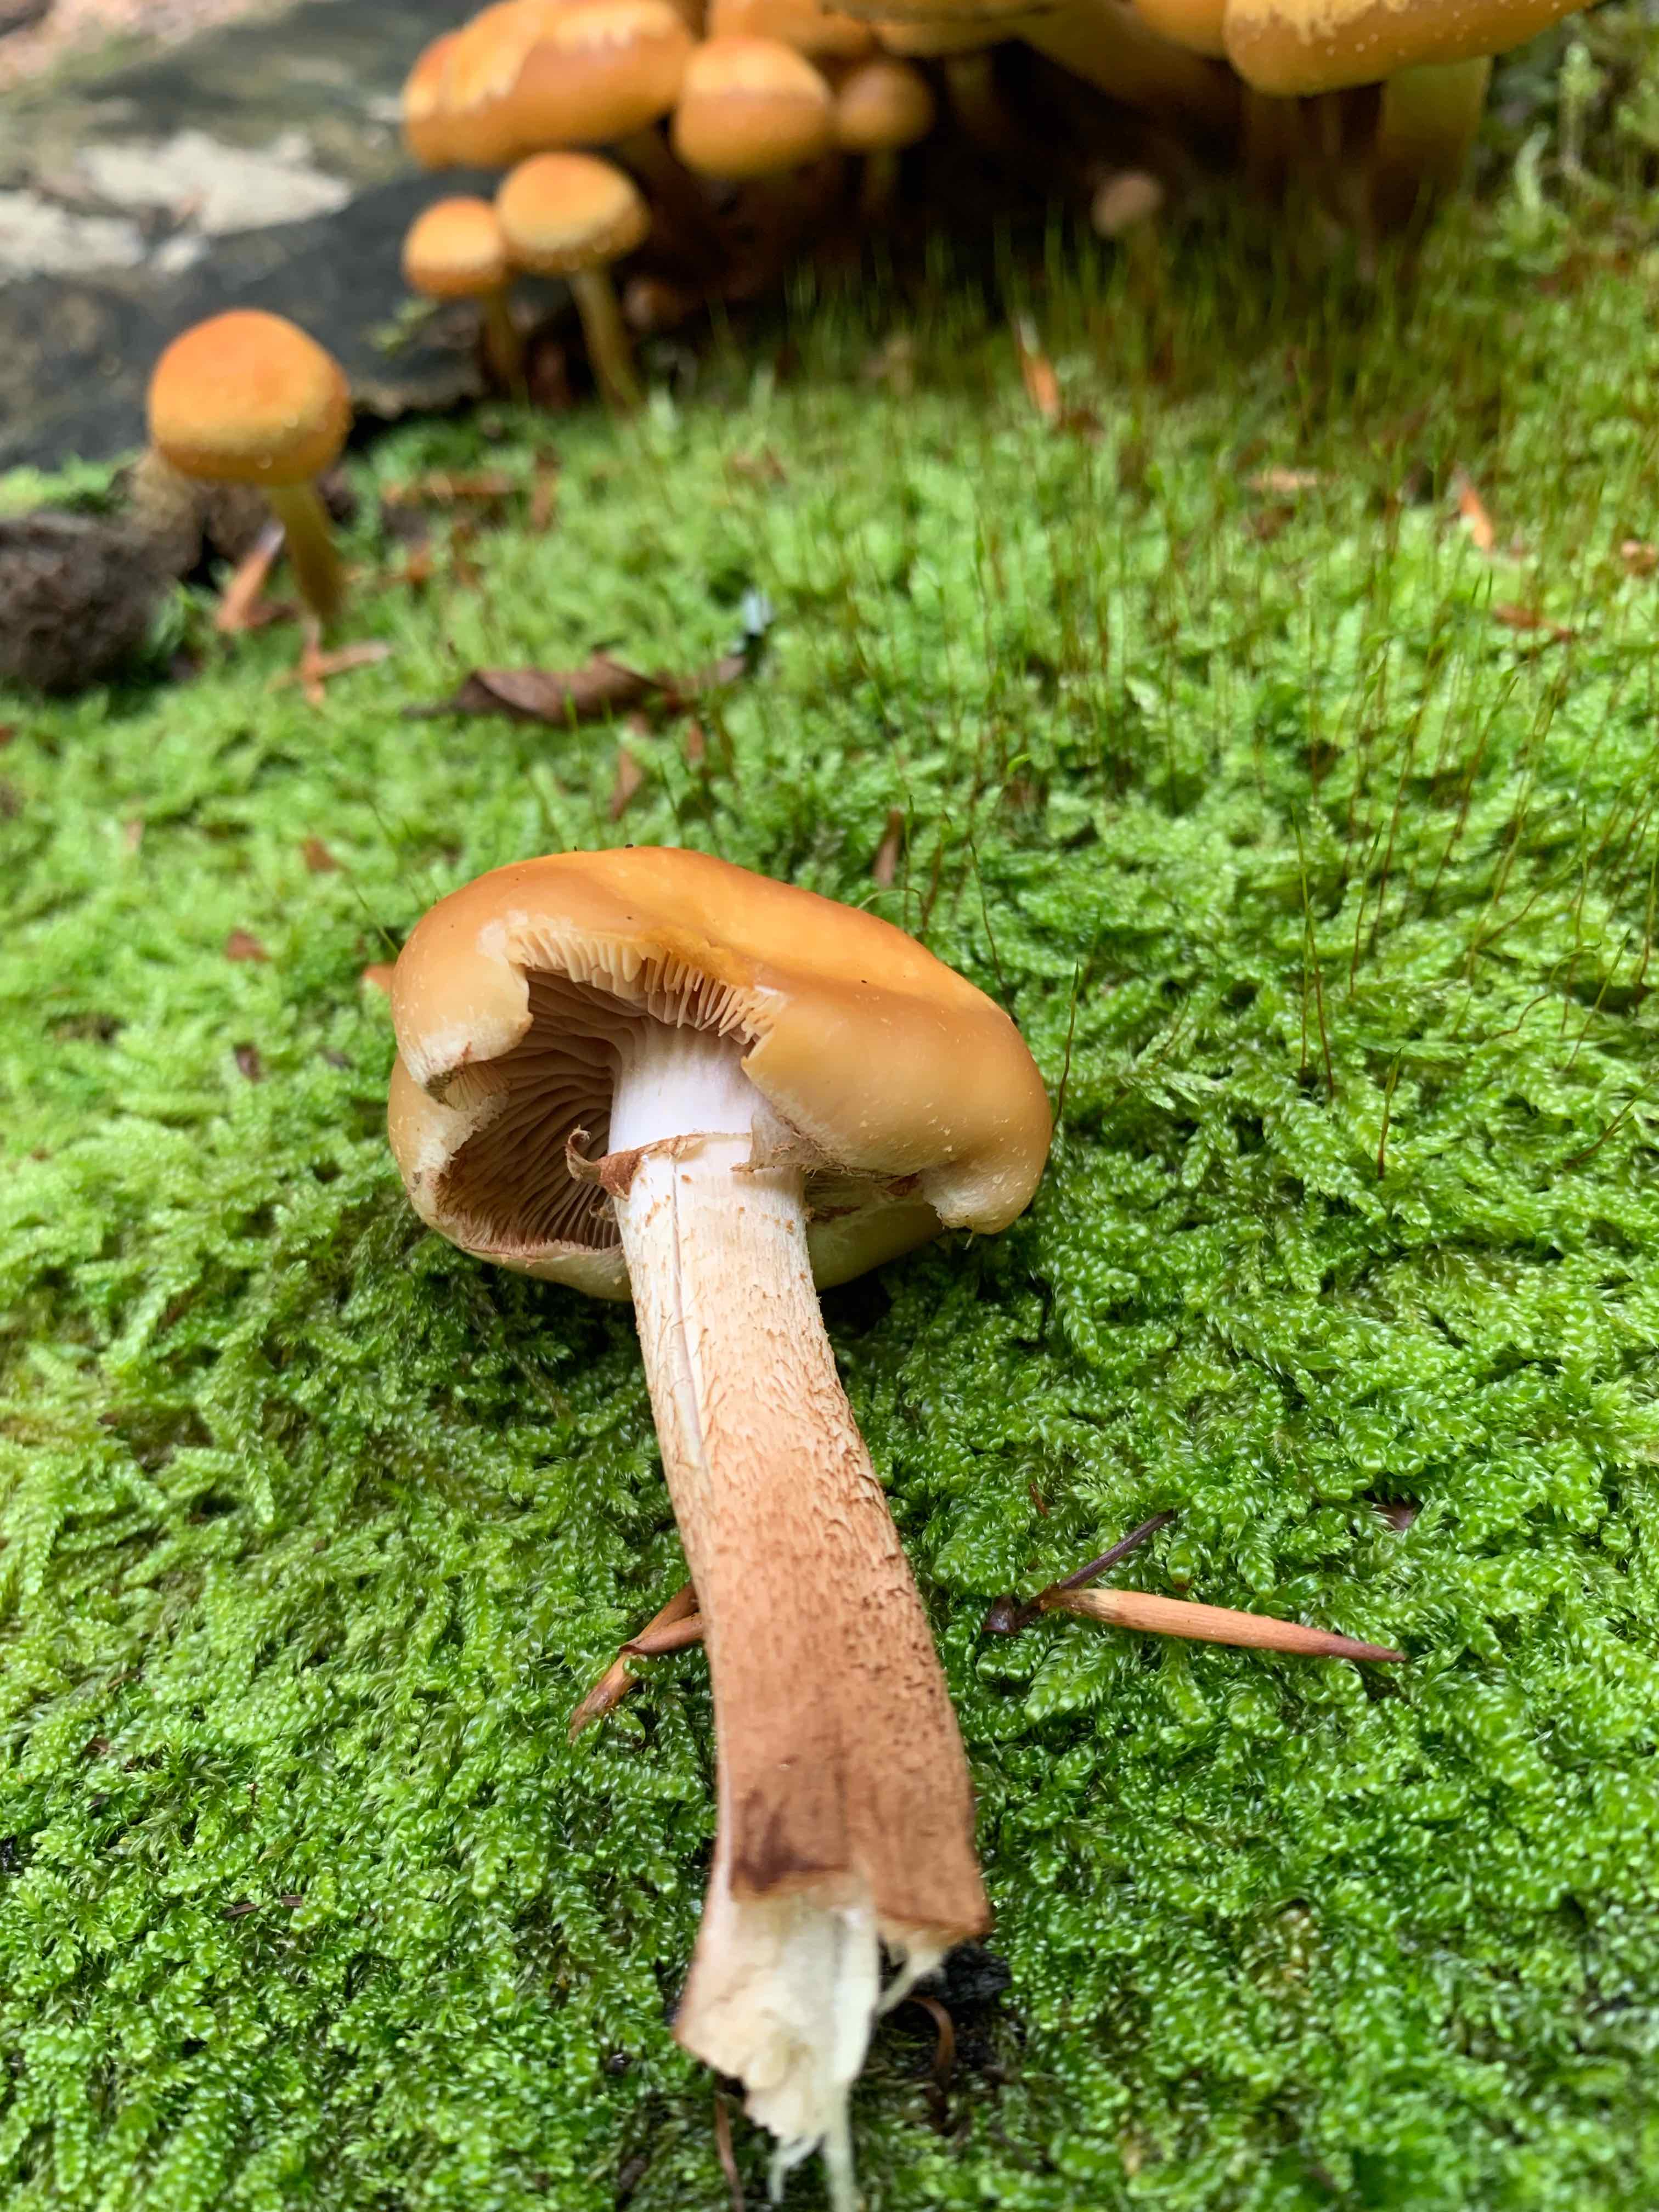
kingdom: Fungi
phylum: Basidiomycota
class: Agaricomycetes
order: Agaricales
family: Strophariaceae
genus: Kuehneromyces
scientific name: Kuehneromyces mutabilis
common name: foranderlig skælhat
